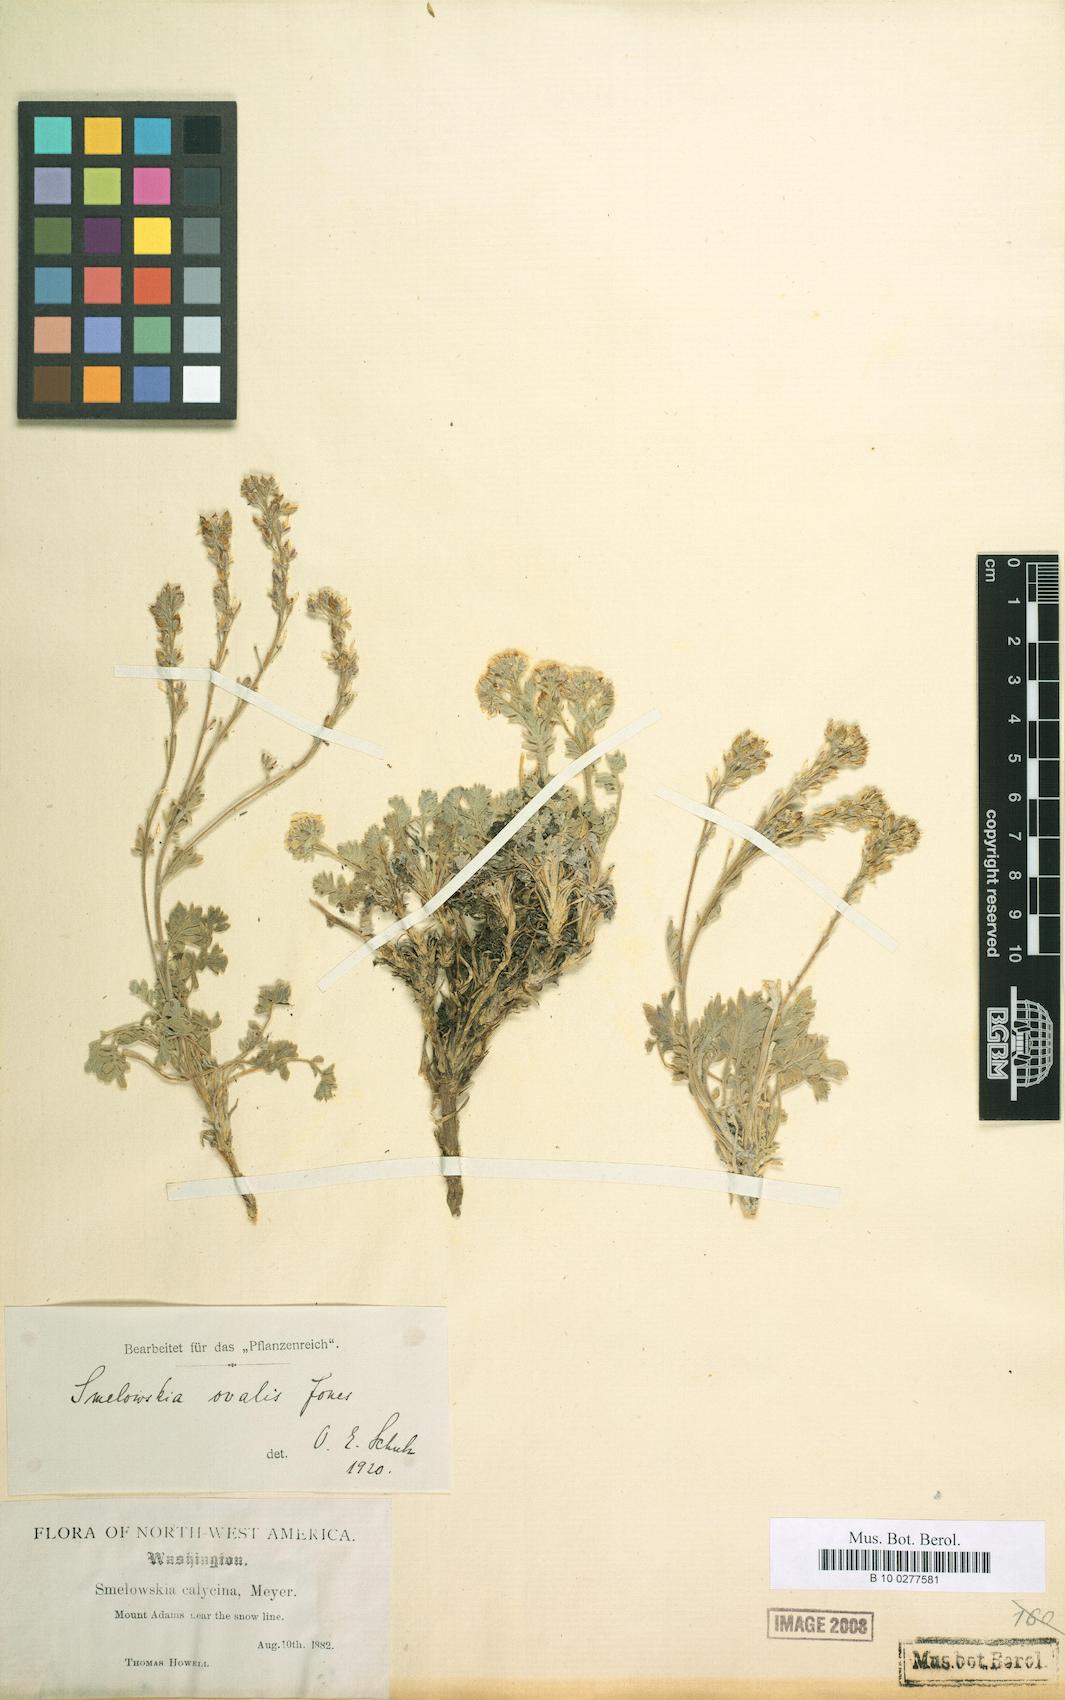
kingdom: Plantae
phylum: Tracheophyta
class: Magnoliopsida
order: Brassicales
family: Brassicaceae
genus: Smelowskia
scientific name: Smelowskia ovalis
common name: Alpine false candytuft
